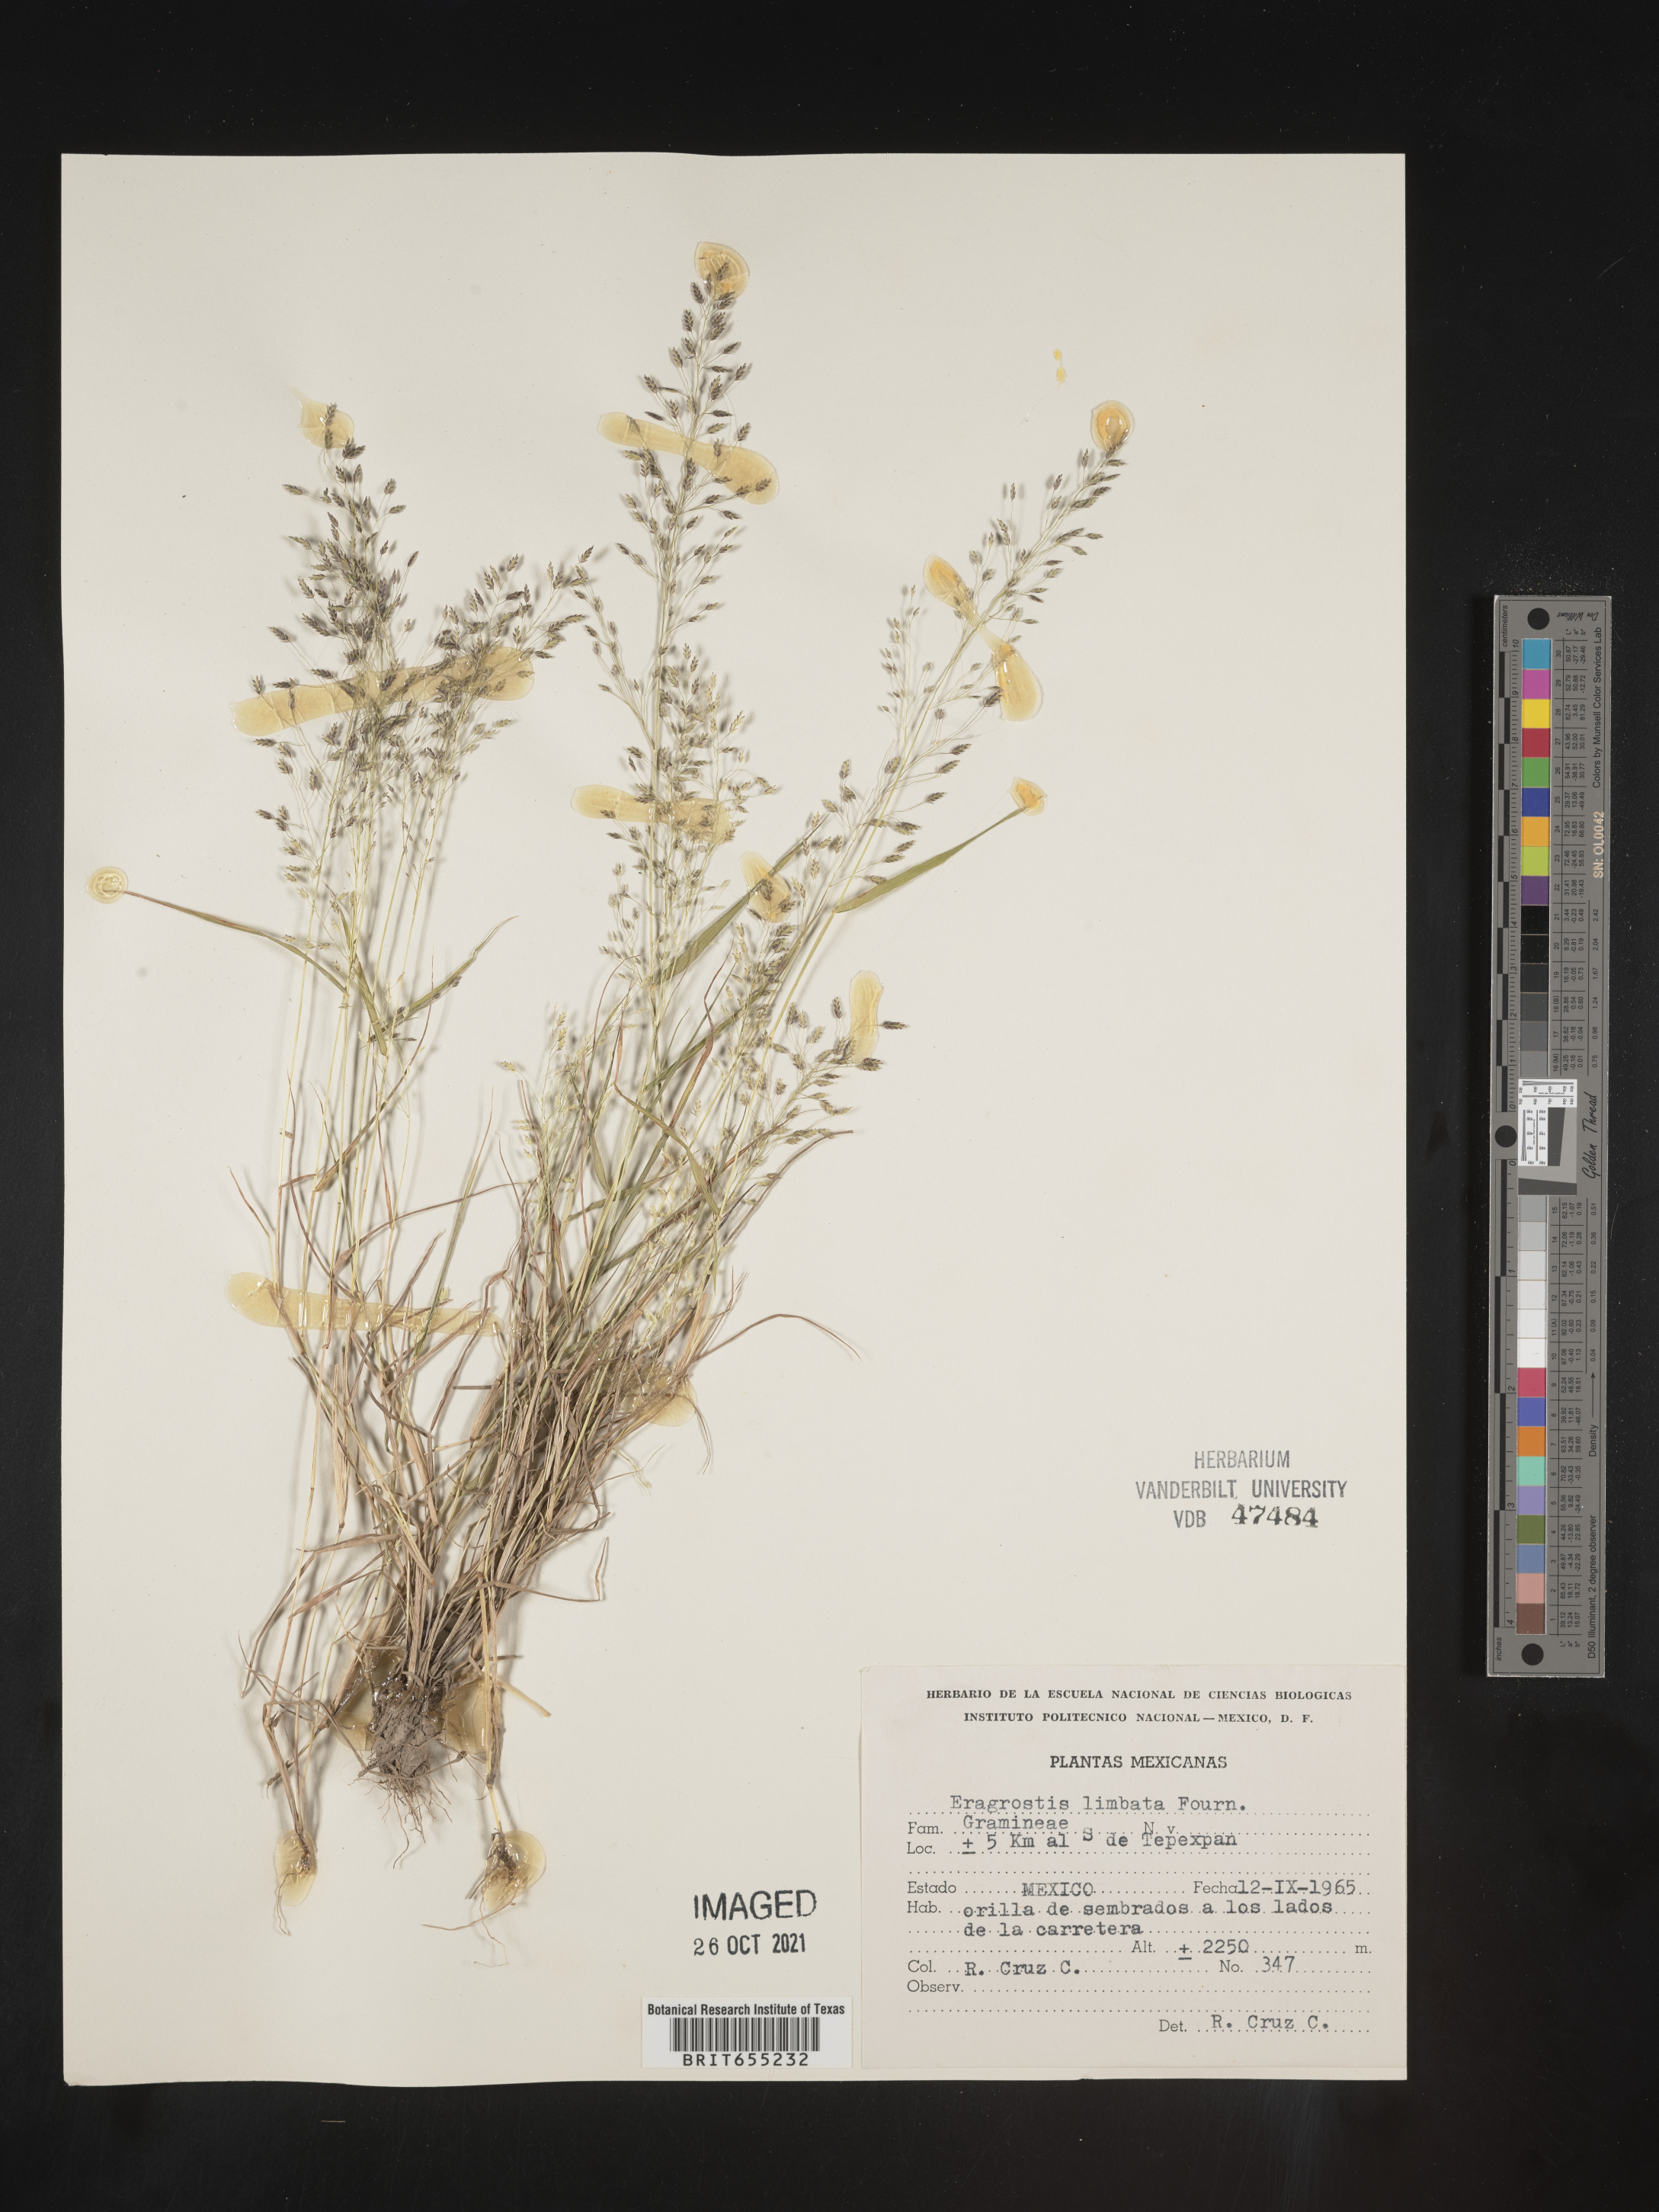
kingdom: Plantae
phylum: Tracheophyta
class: Liliopsida
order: Poales
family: Poaceae
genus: Eragrostis
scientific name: Eragrostis
